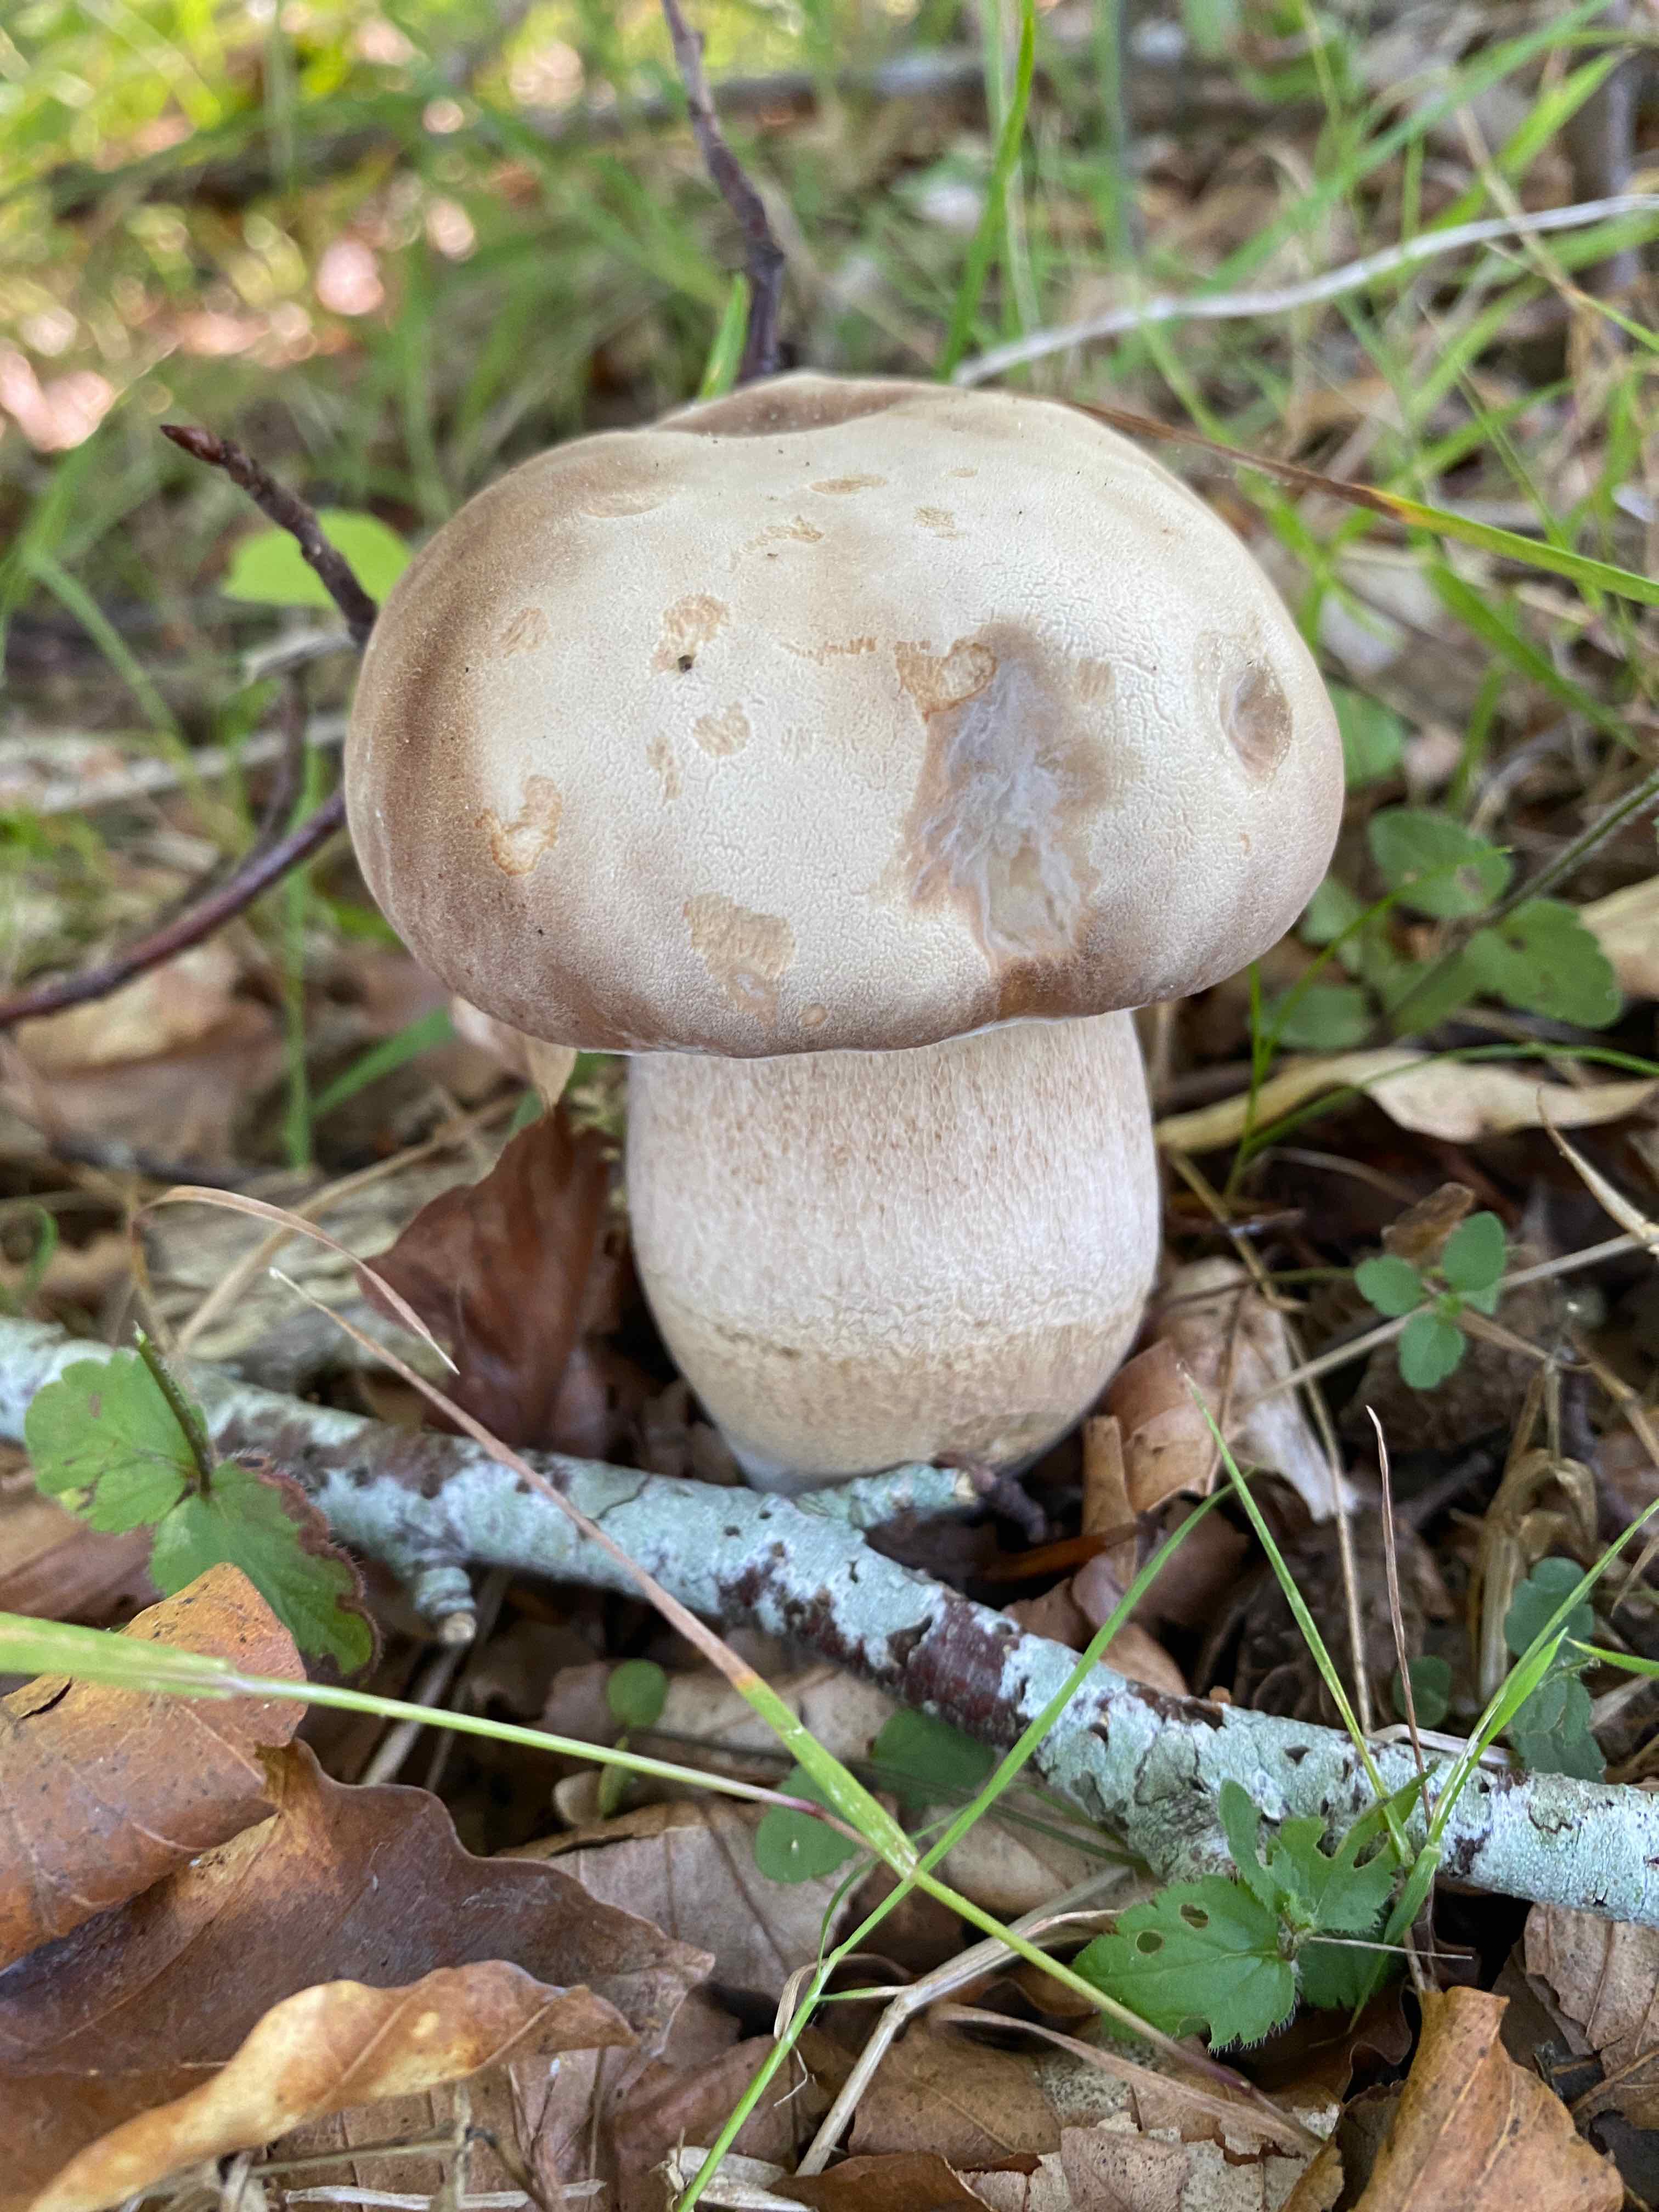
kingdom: Fungi
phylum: Basidiomycota
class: Agaricomycetes
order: Boletales
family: Boletaceae
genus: Boletus
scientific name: Boletus reticulatus
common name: sommer-rørhat
